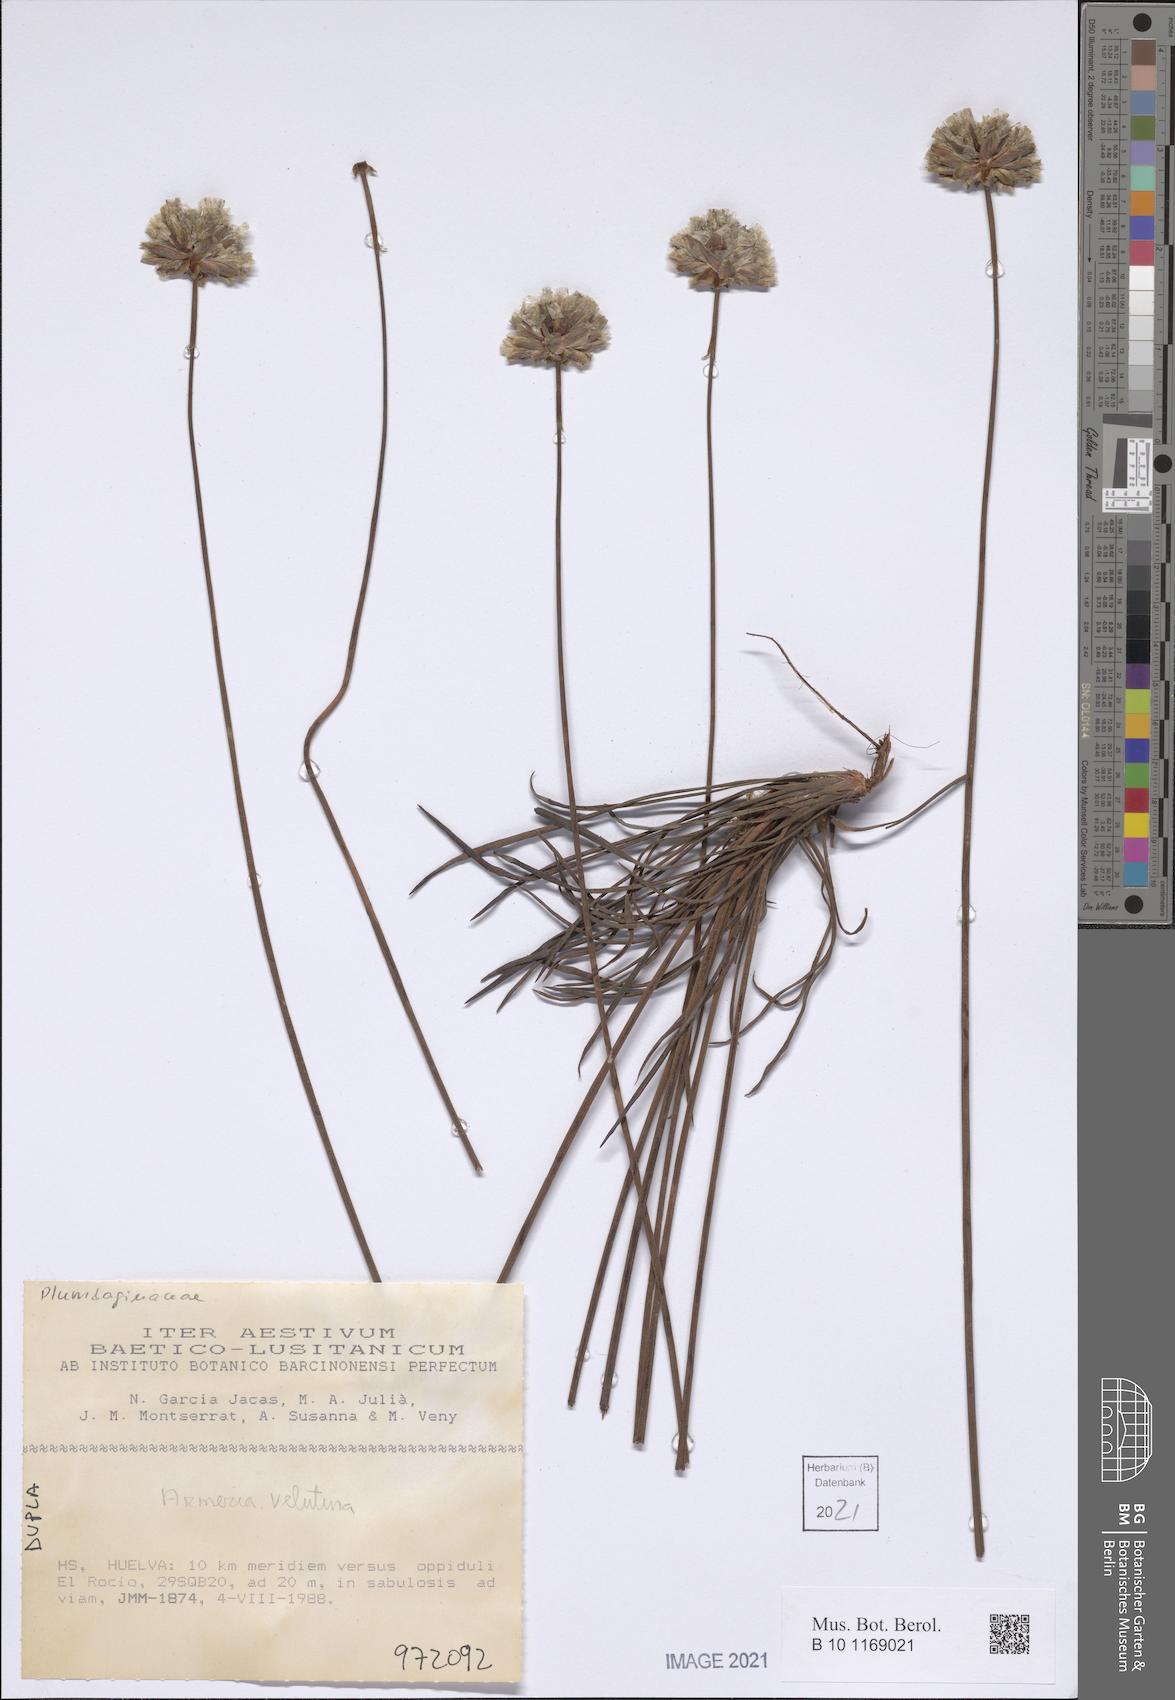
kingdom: Plantae
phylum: Tracheophyta
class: Magnoliopsida
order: Caryophyllales
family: Plumbaginaceae
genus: Armeria
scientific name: Armeria velutina
